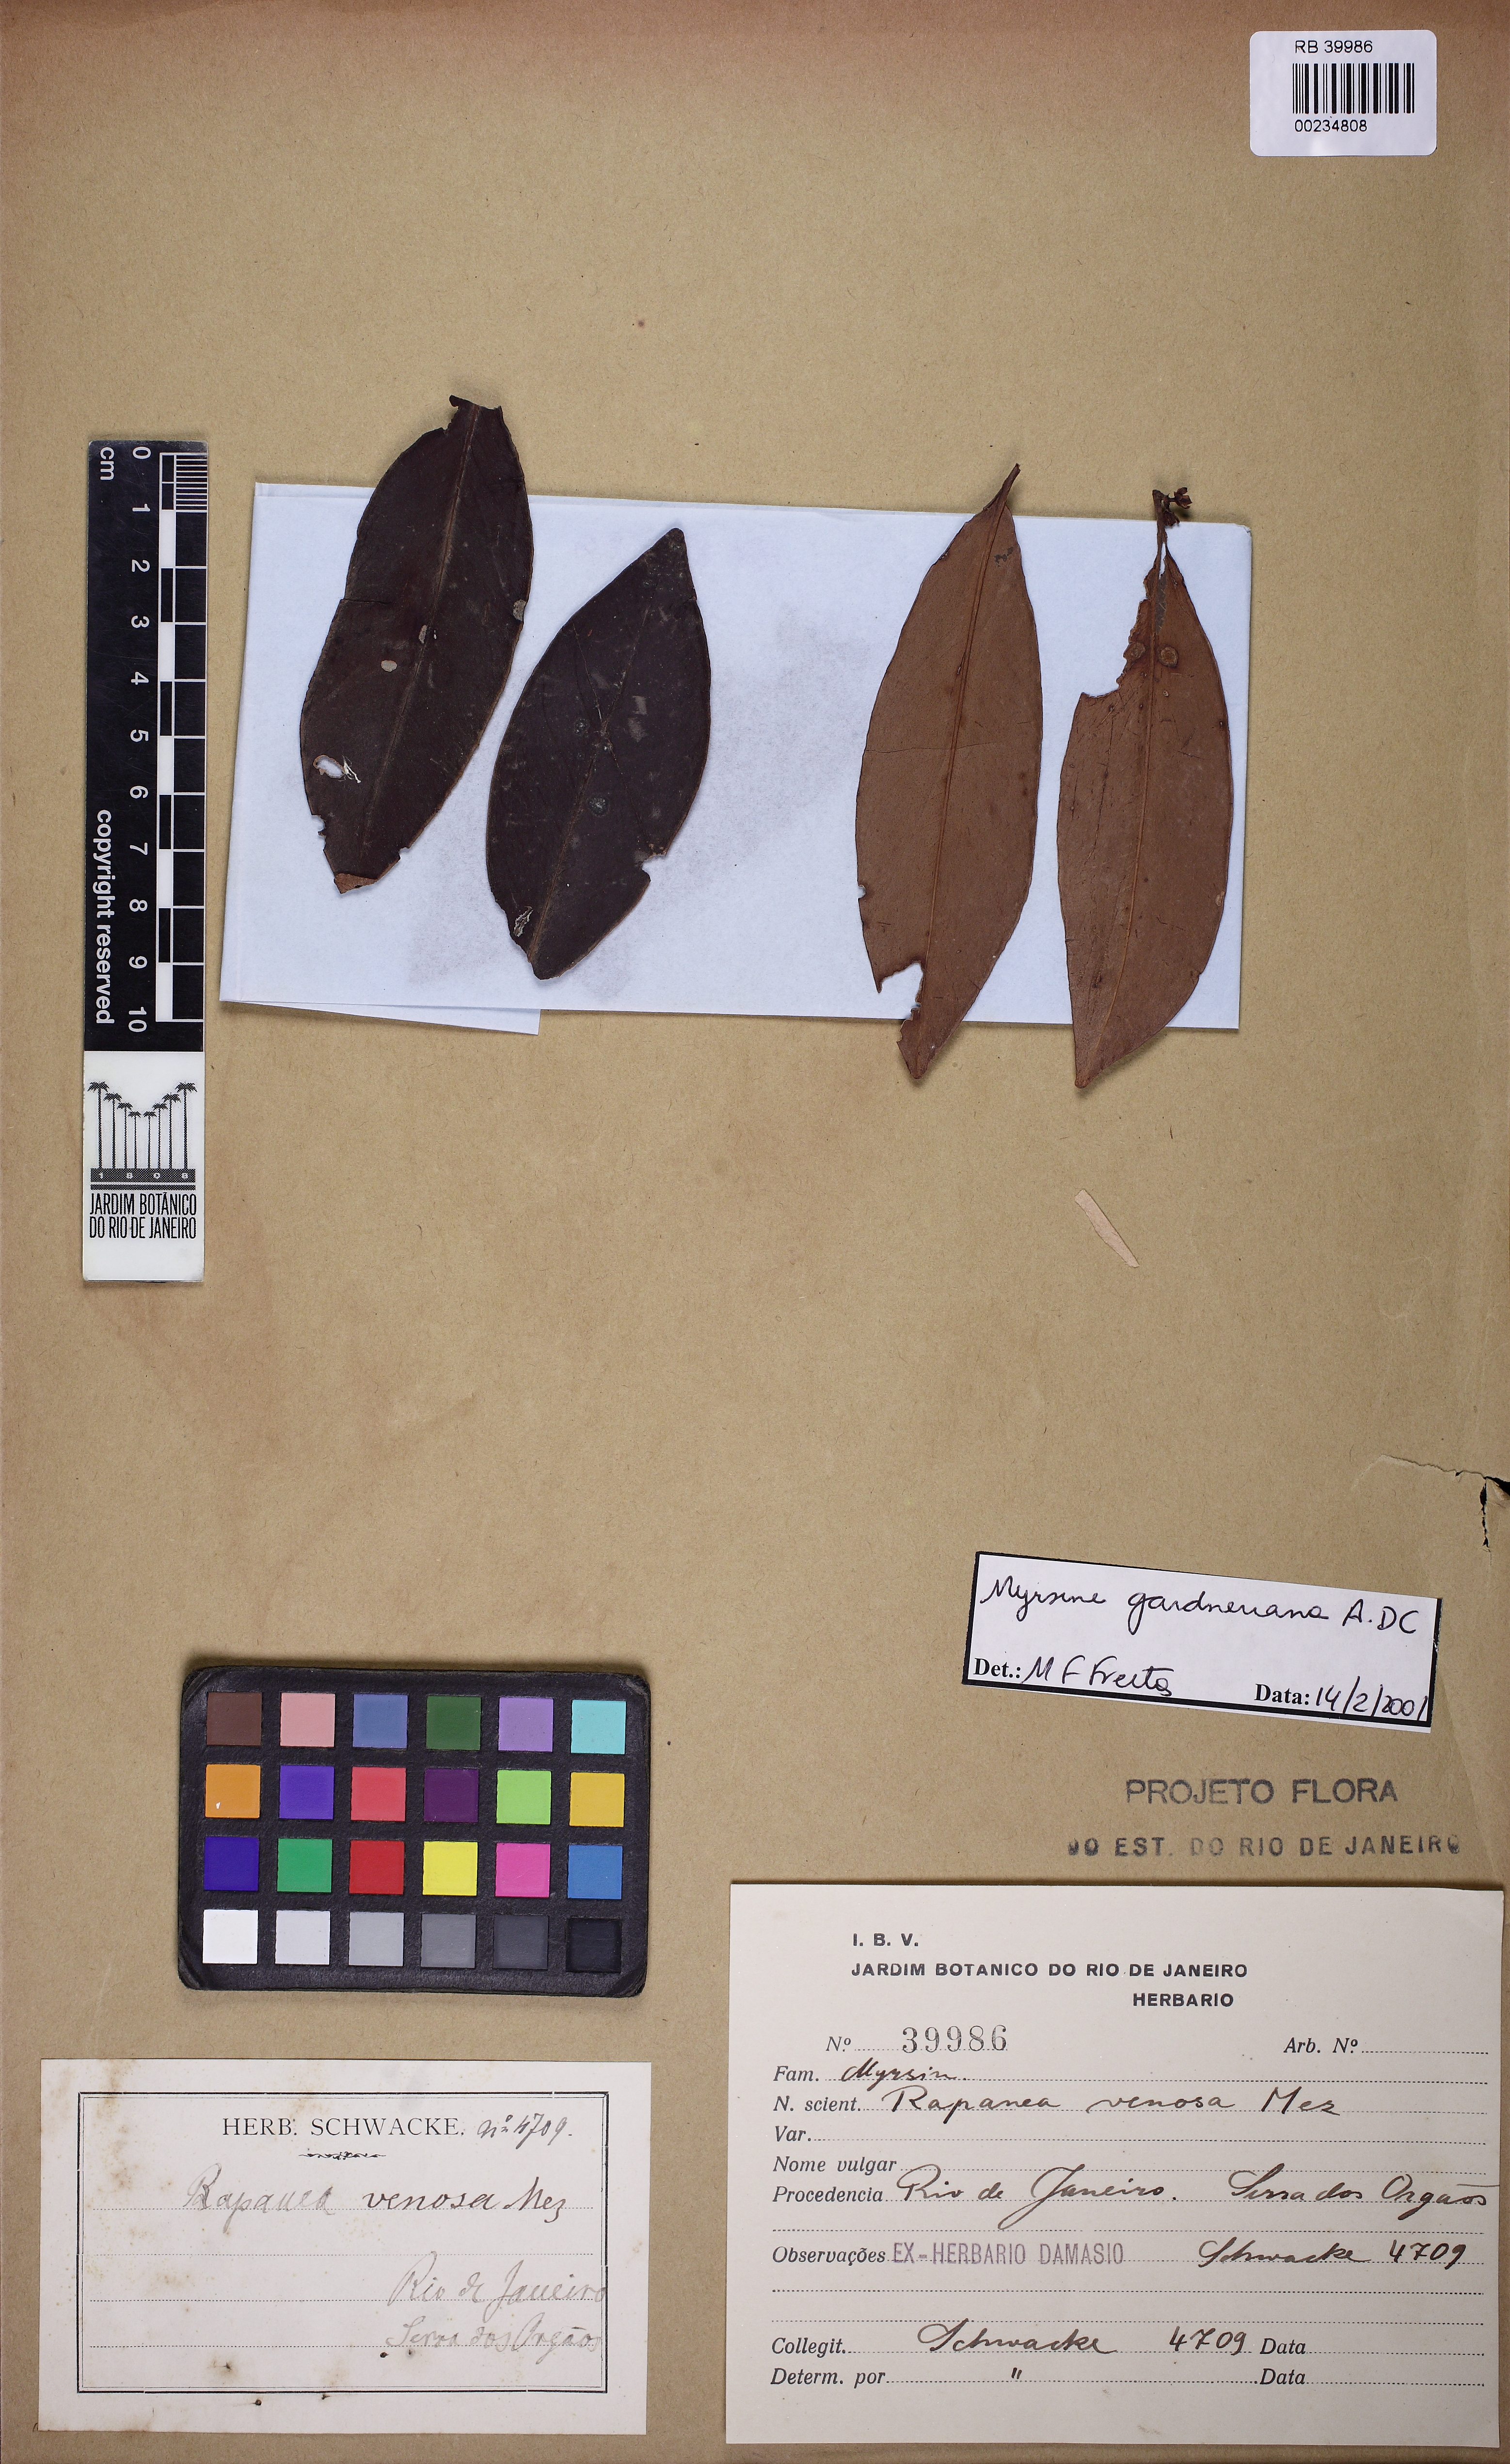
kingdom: Plantae
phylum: Tracheophyta
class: Magnoliopsida
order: Ericales
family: Primulaceae
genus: Myrsine
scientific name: Myrsine gardneriana
